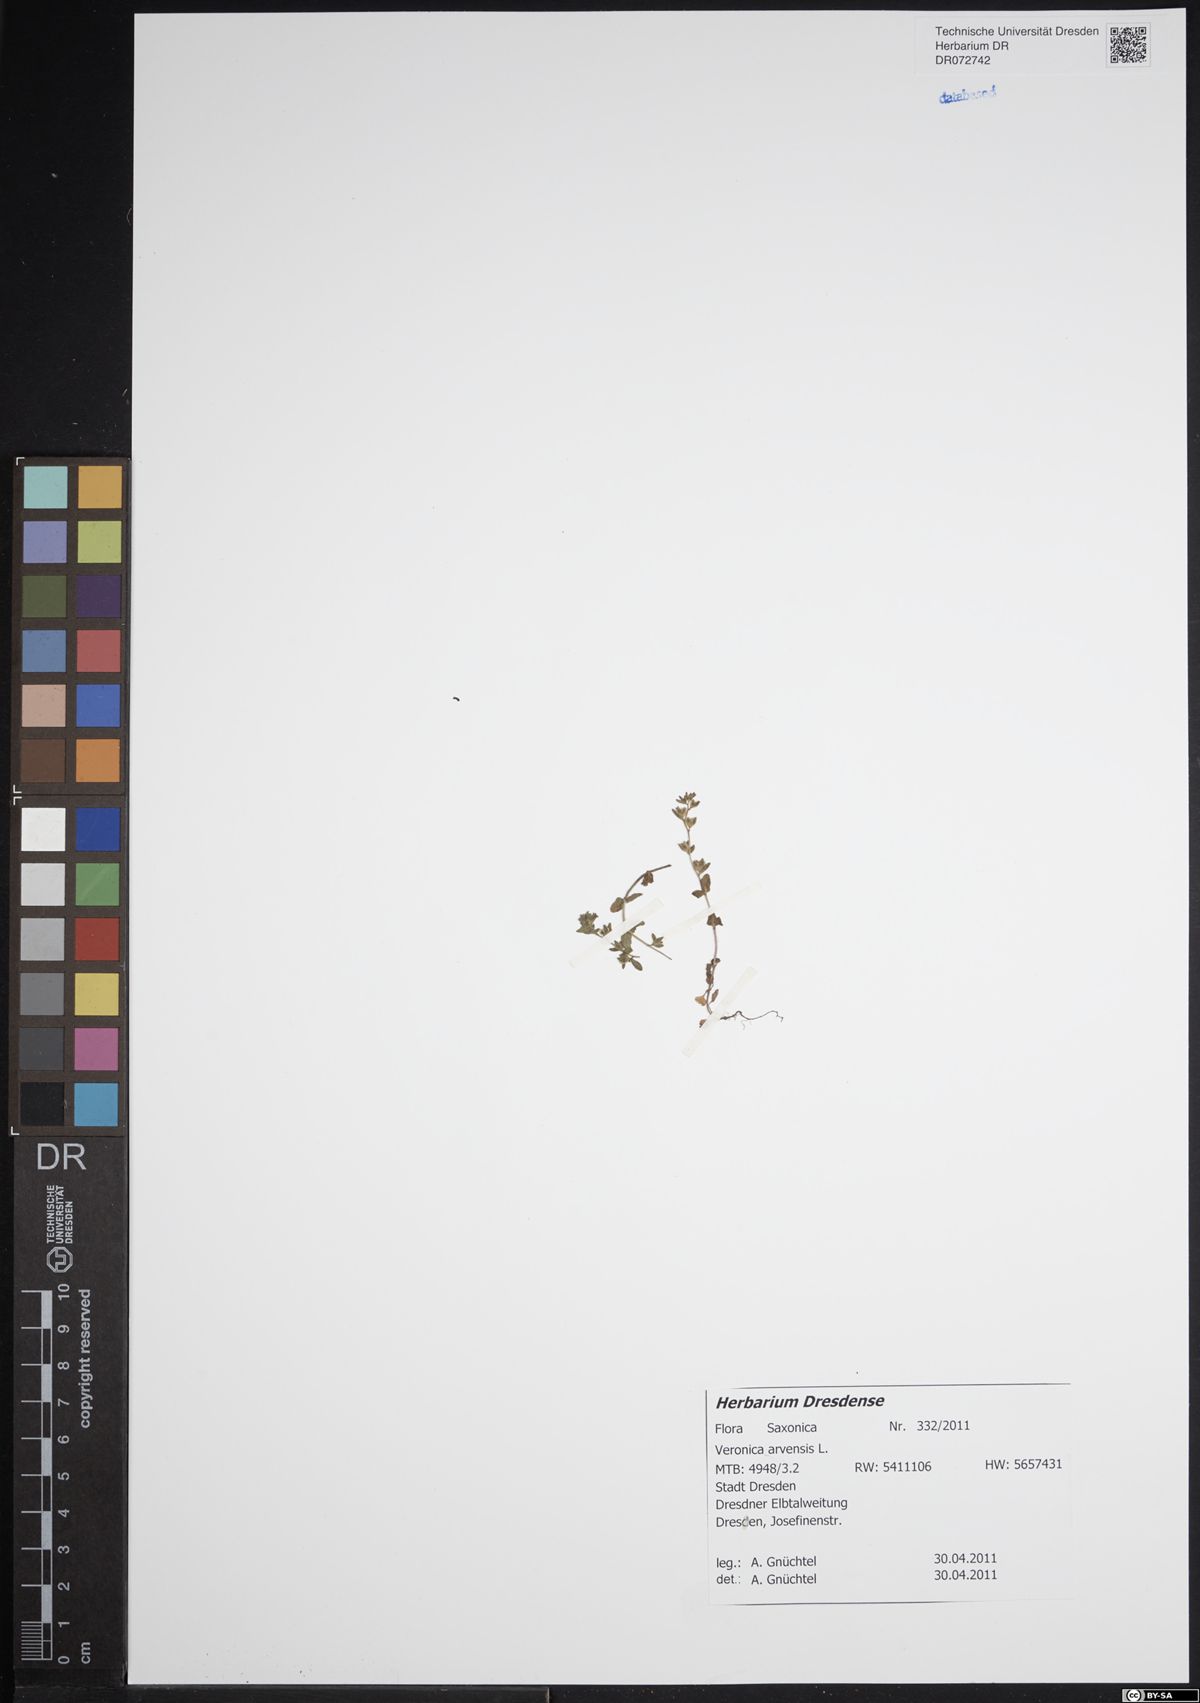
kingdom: Plantae
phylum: Tracheophyta
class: Magnoliopsida
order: Lamiales
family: Plantaginaceae
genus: Veronica
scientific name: Veronica arvensis
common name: Corn speedwell
